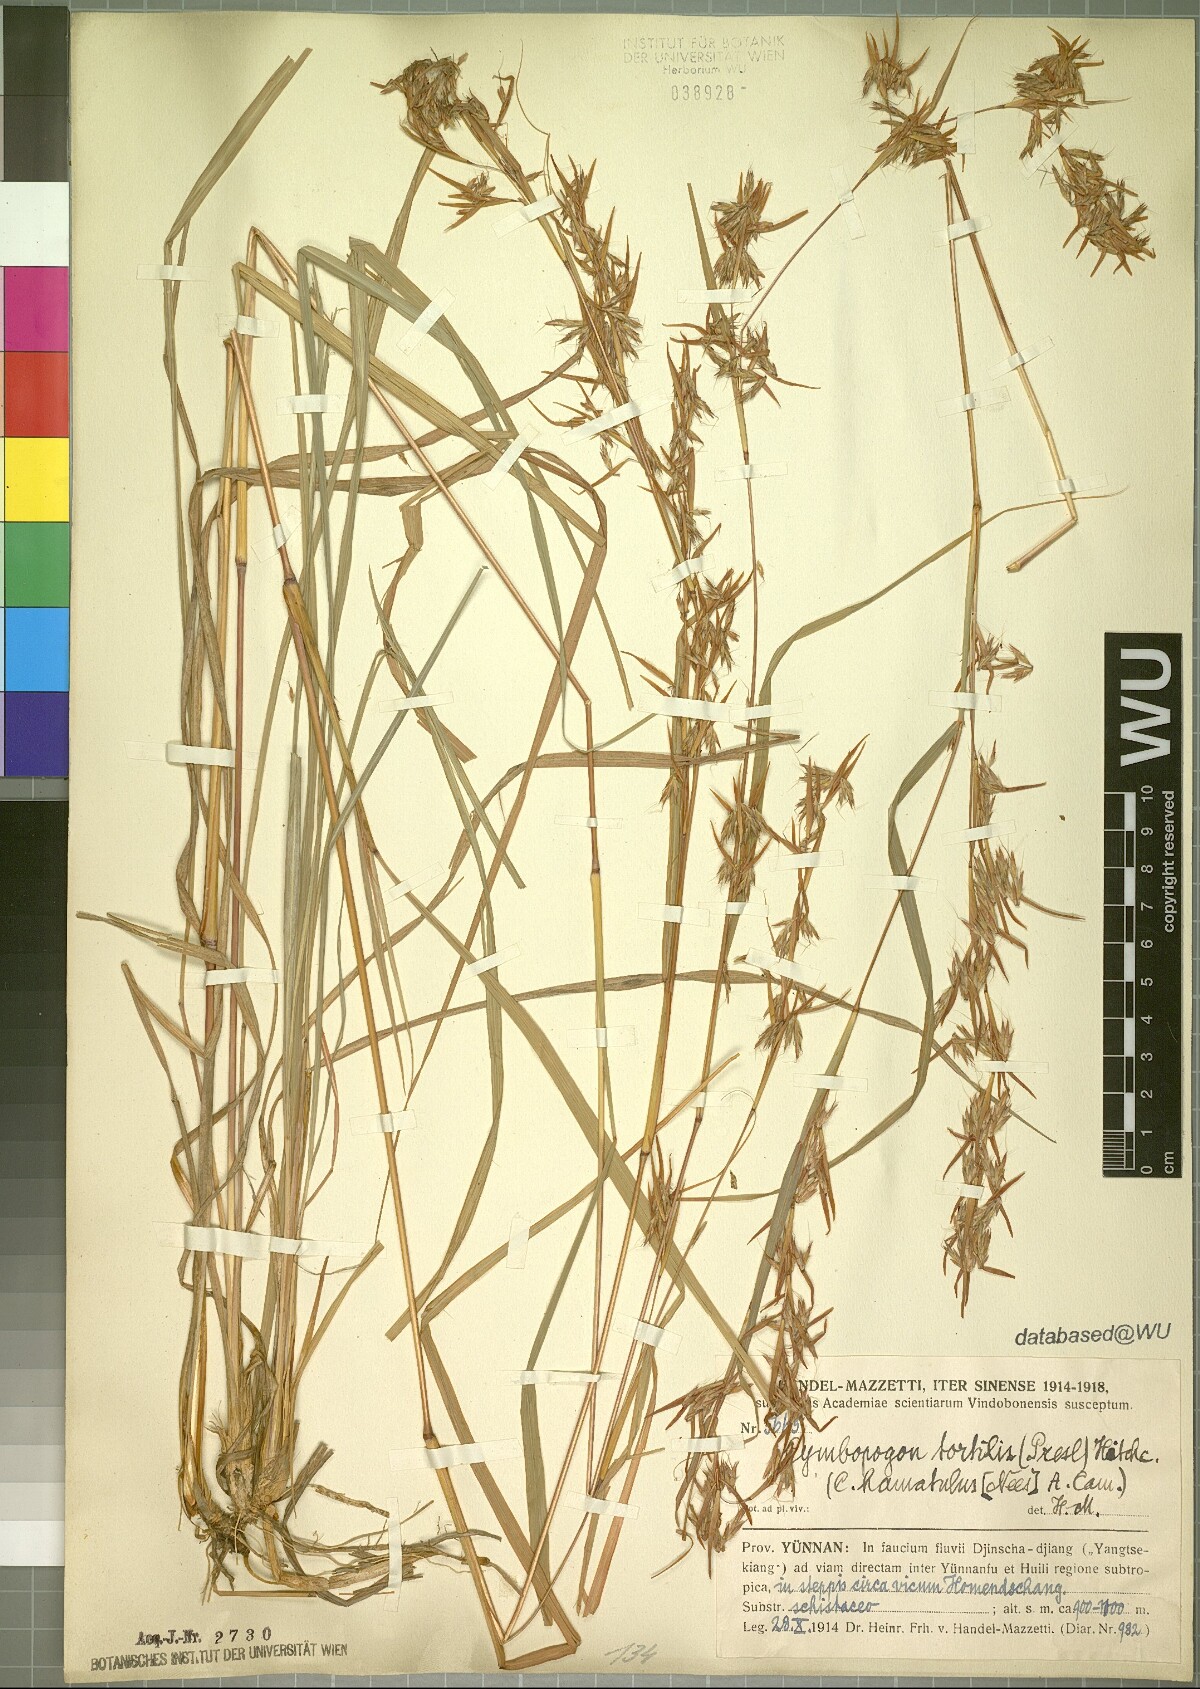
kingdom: Plantae
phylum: Tracheophyta
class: Liliopsida
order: Poales
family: Poaceae
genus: Cymbopogon
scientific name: Cymbopogon tortilis
